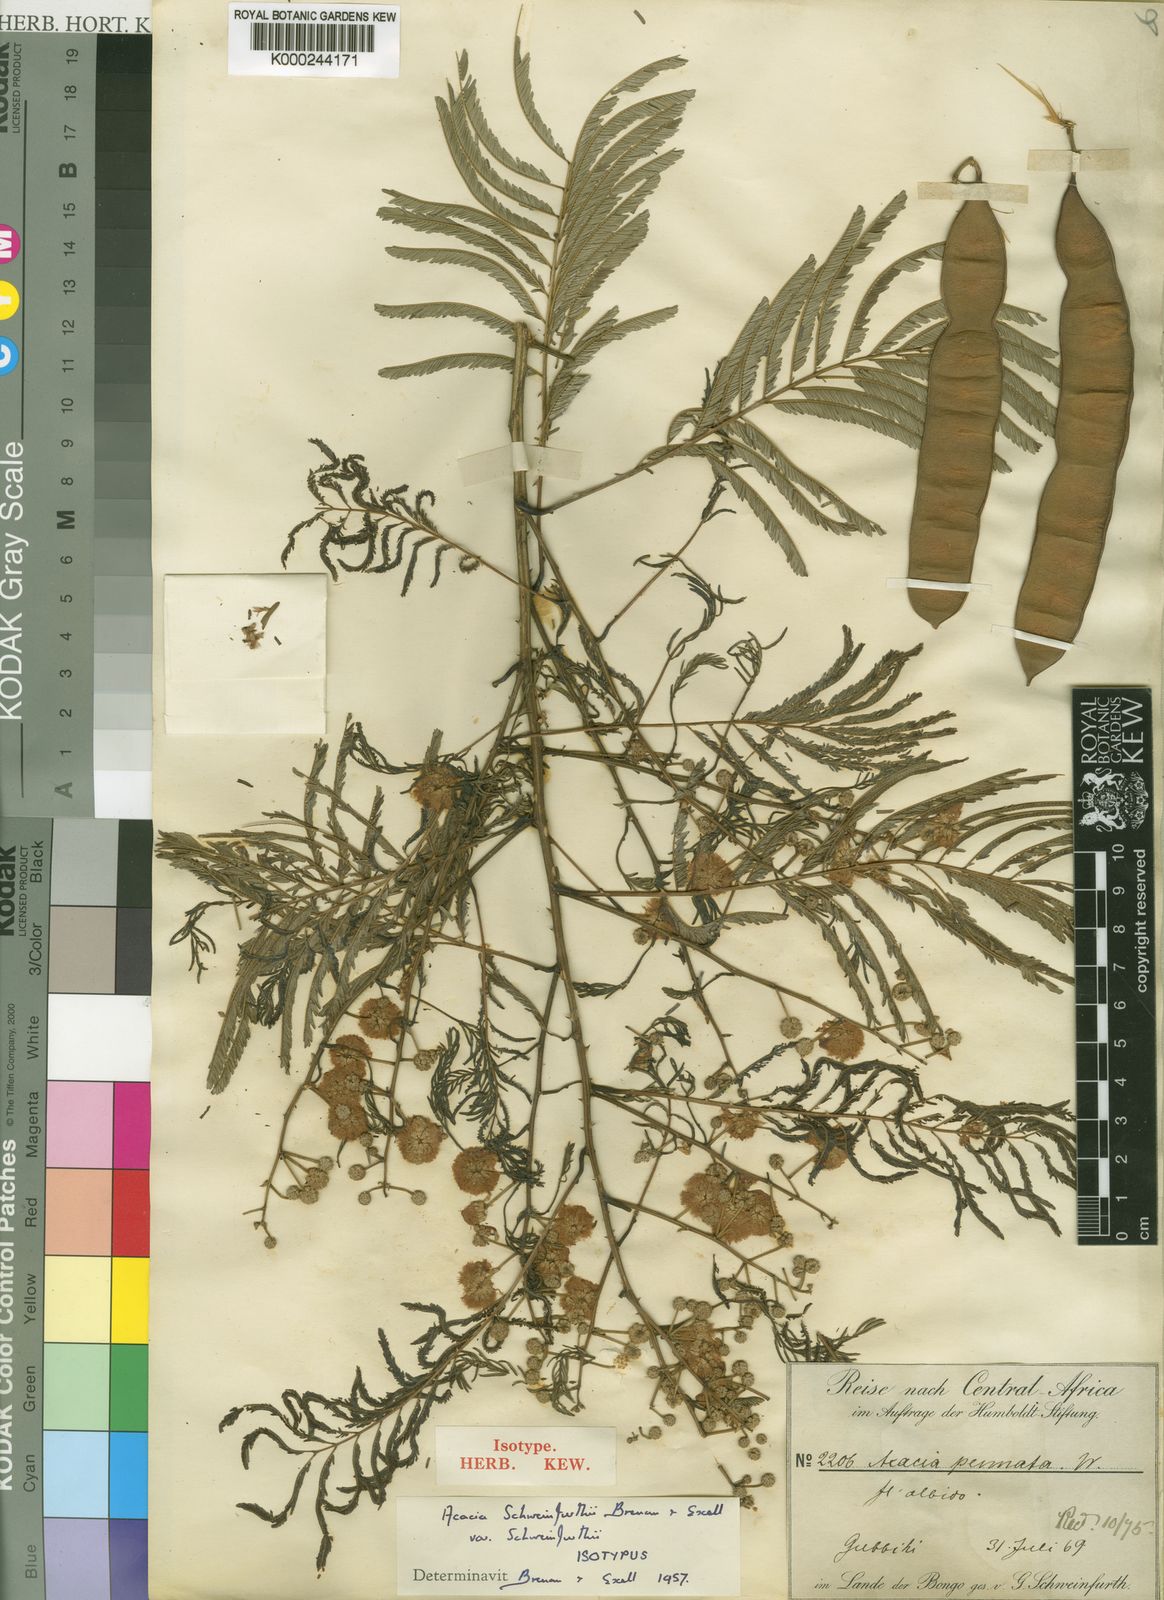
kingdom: Plantae
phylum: Tracheophyta
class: Magnoliopsida
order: Fabales
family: Fabaceae
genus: Senegalia
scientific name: Senegalia schweinfurthii
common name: River climbing acacia
